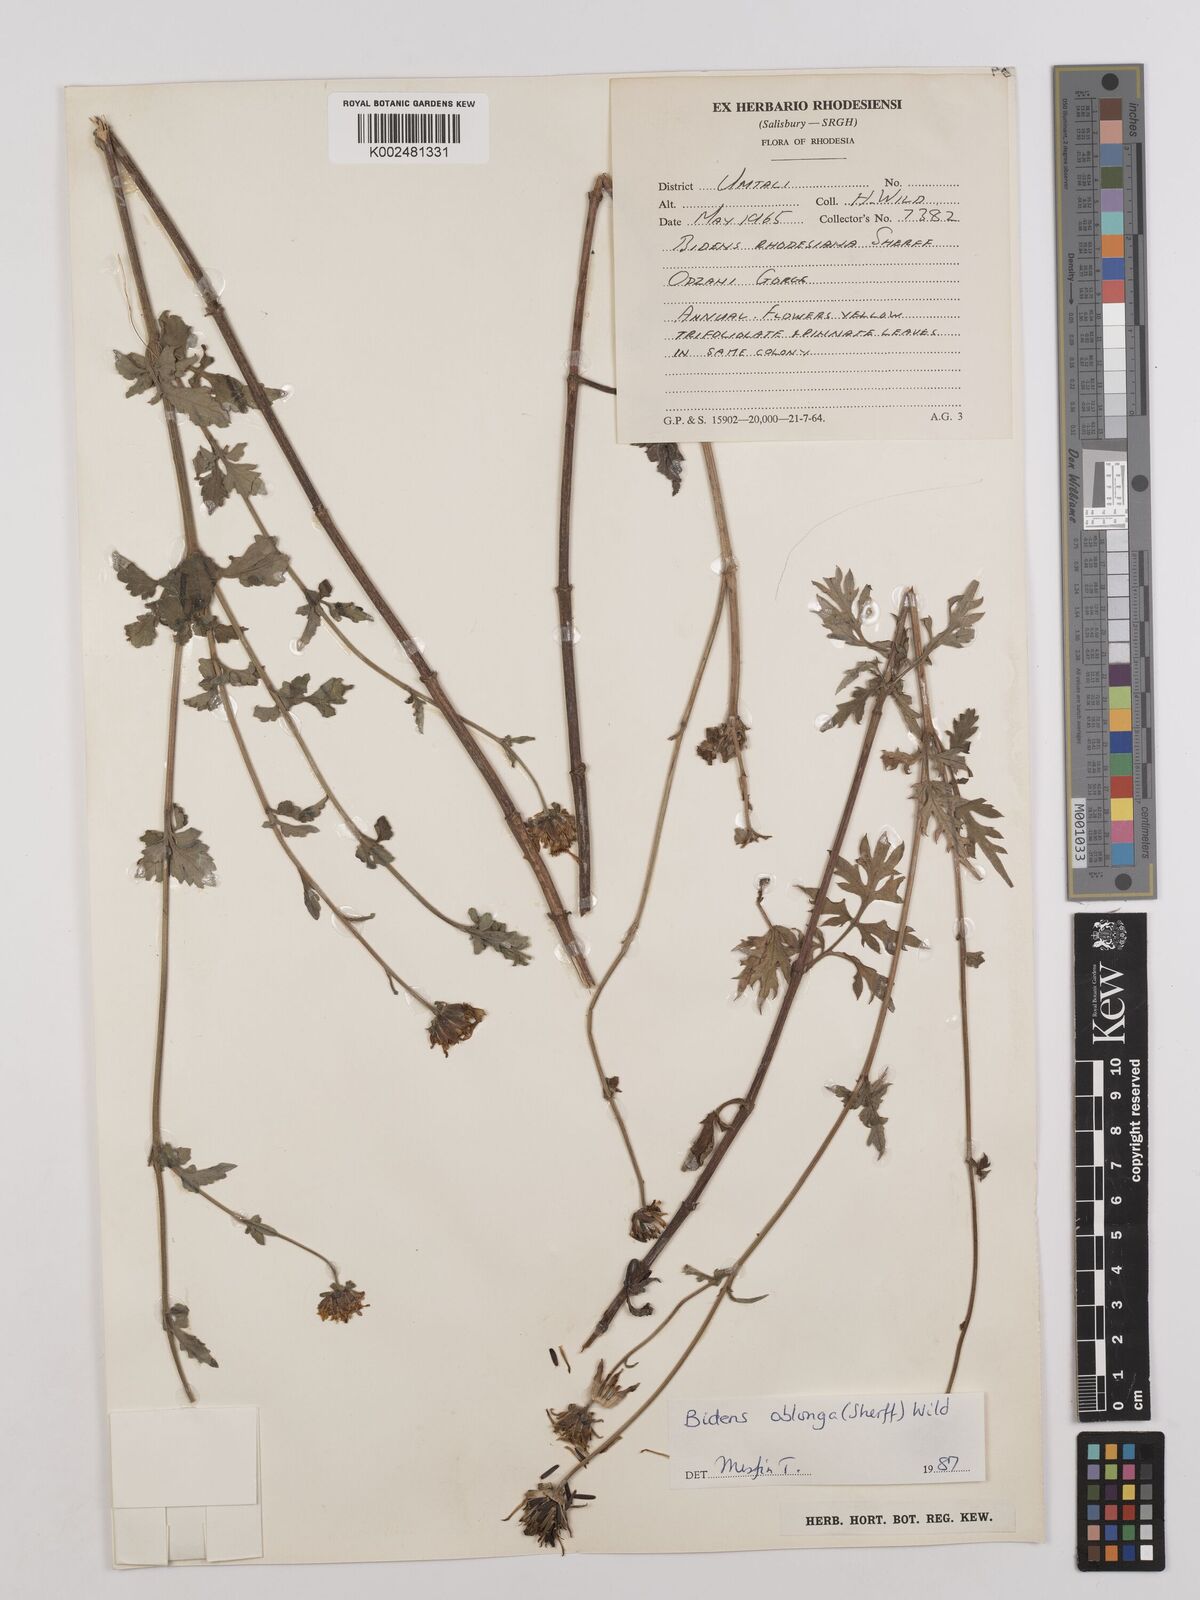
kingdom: Plantae
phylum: Tracheophyta
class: Magnoliopsida
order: Asterales
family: Asteraceae
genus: Bidens
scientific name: Bidens oblonga
